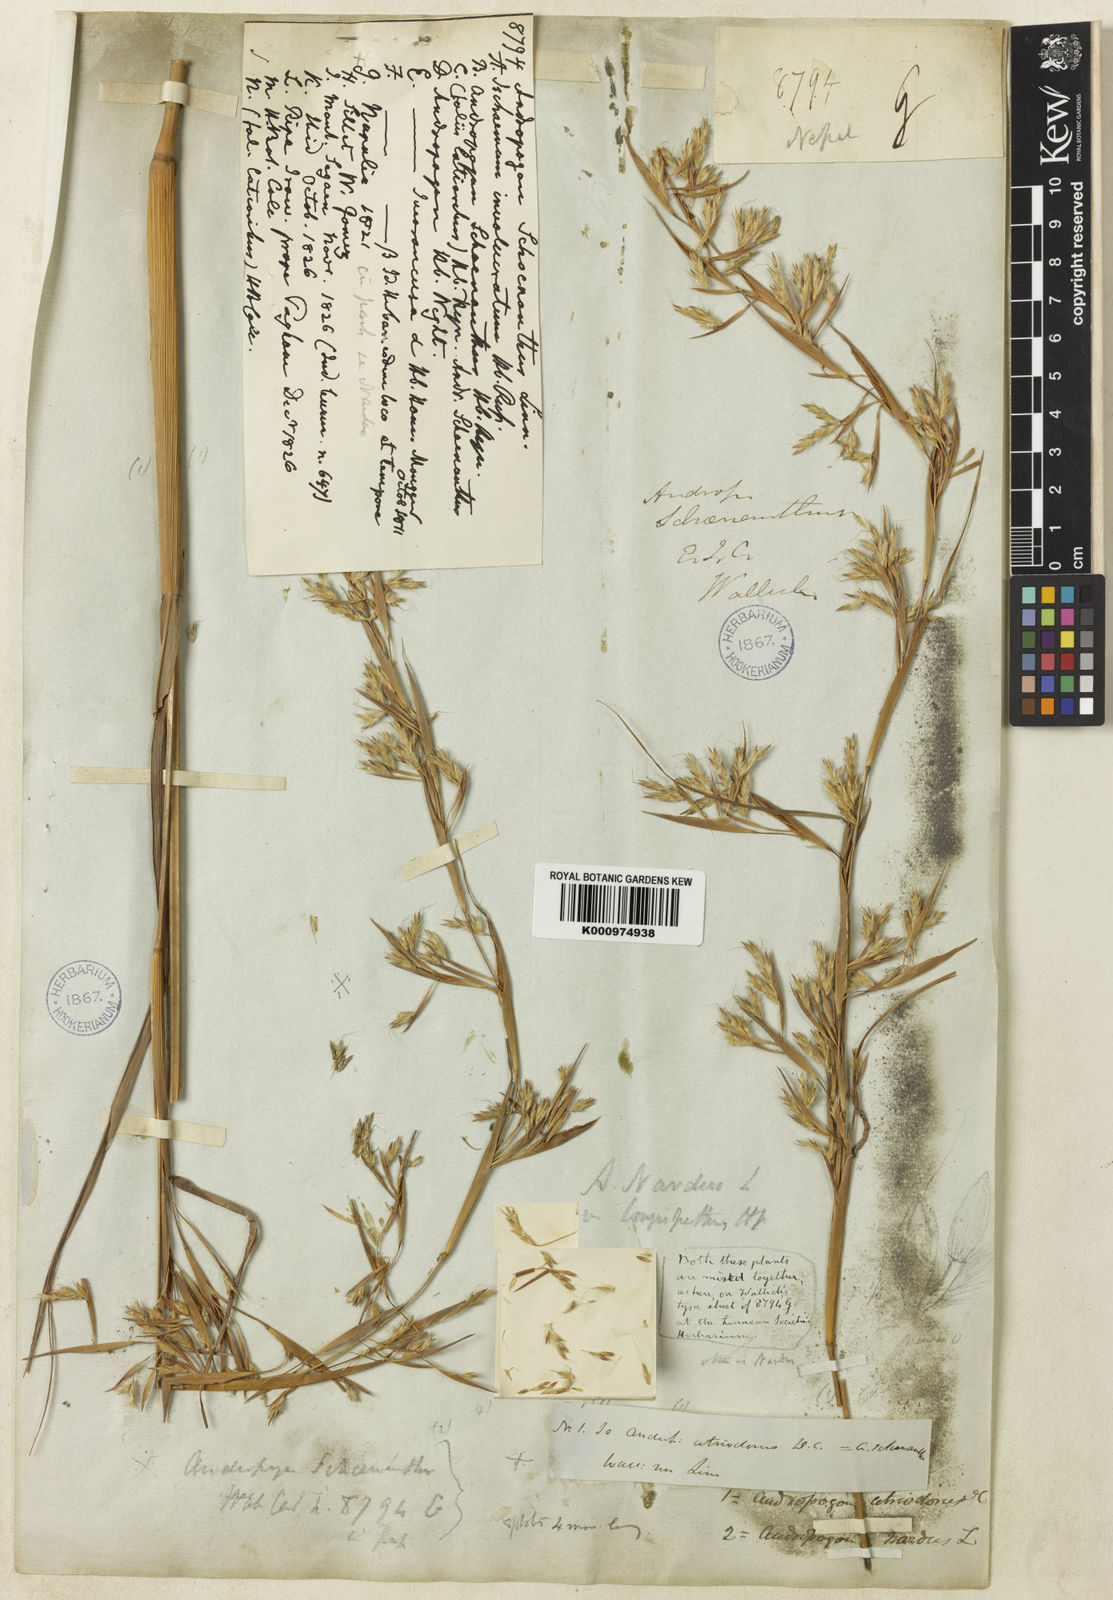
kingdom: Plantae
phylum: Tracheophyta
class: Liliopsida
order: Poales
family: Poaceae
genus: Cymbopogon
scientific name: Cymbopogon pendulus
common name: Jammu lemongrass
